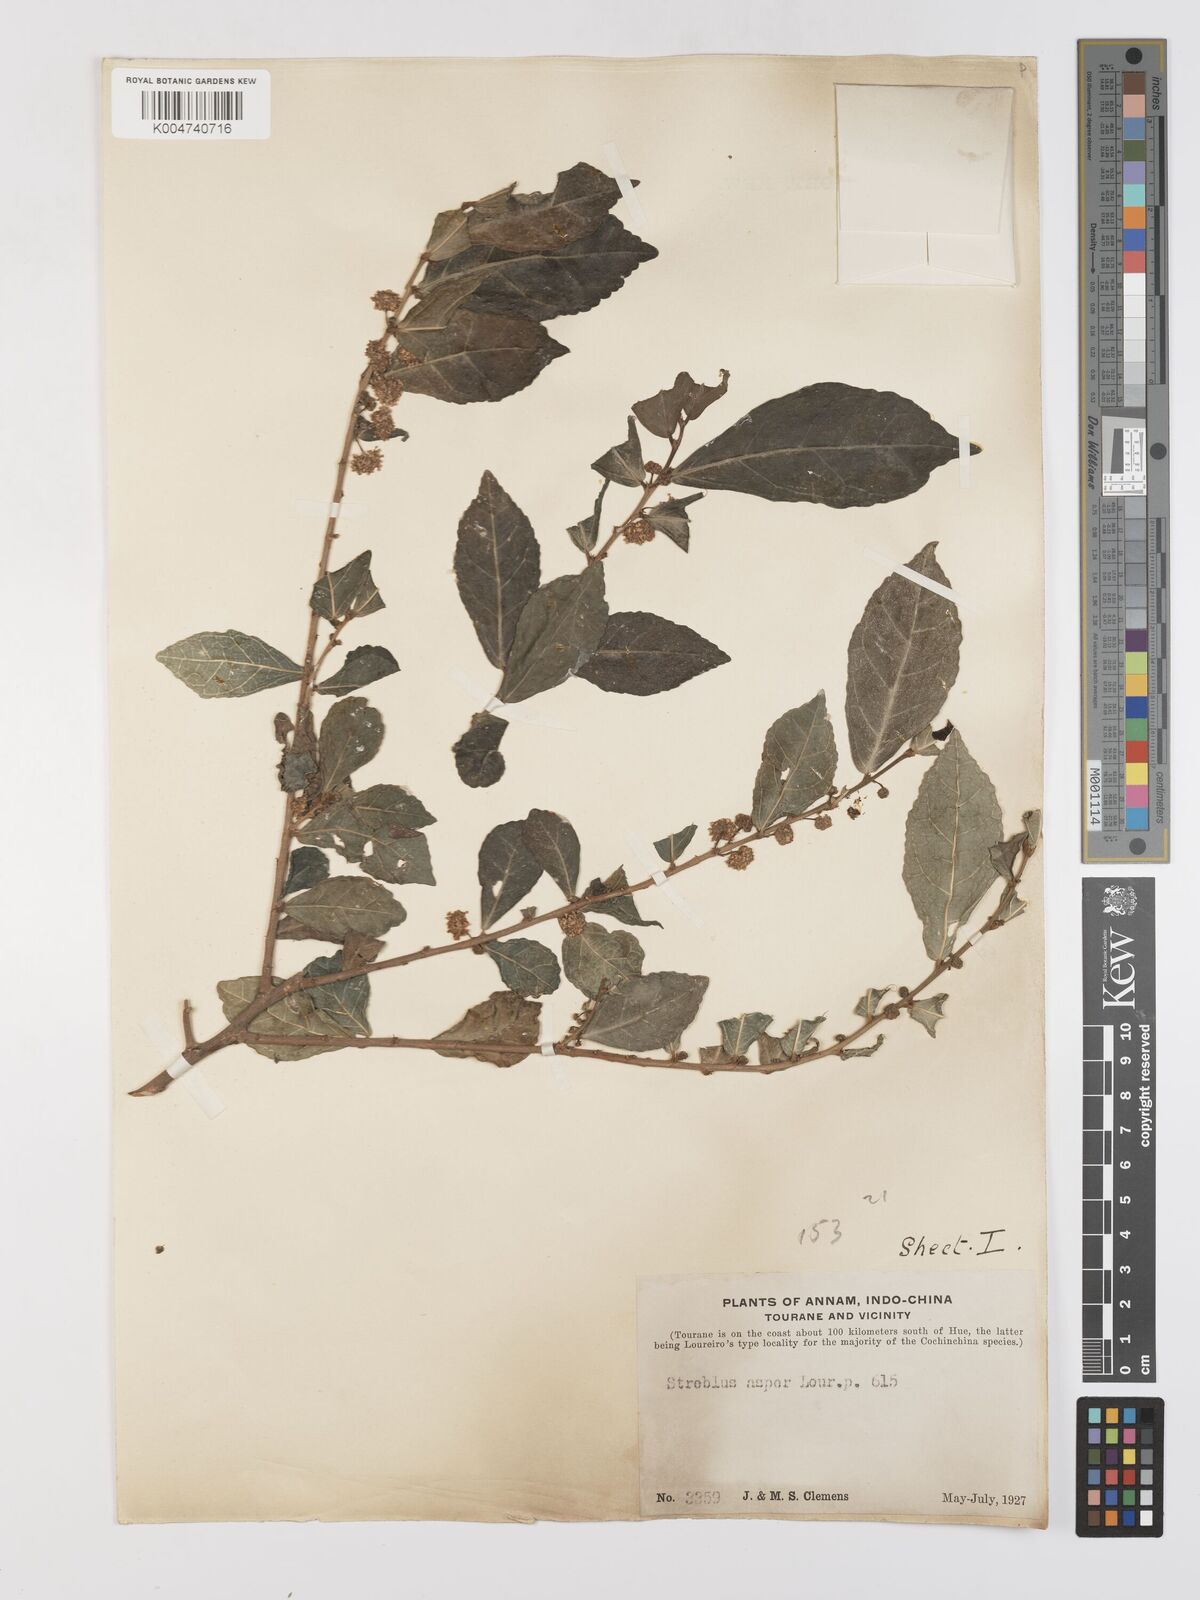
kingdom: Plantae
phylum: Tracheophyta
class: Magnoliopsida
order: Rosales
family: Moraceae
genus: Streblus
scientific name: Streblus asper
